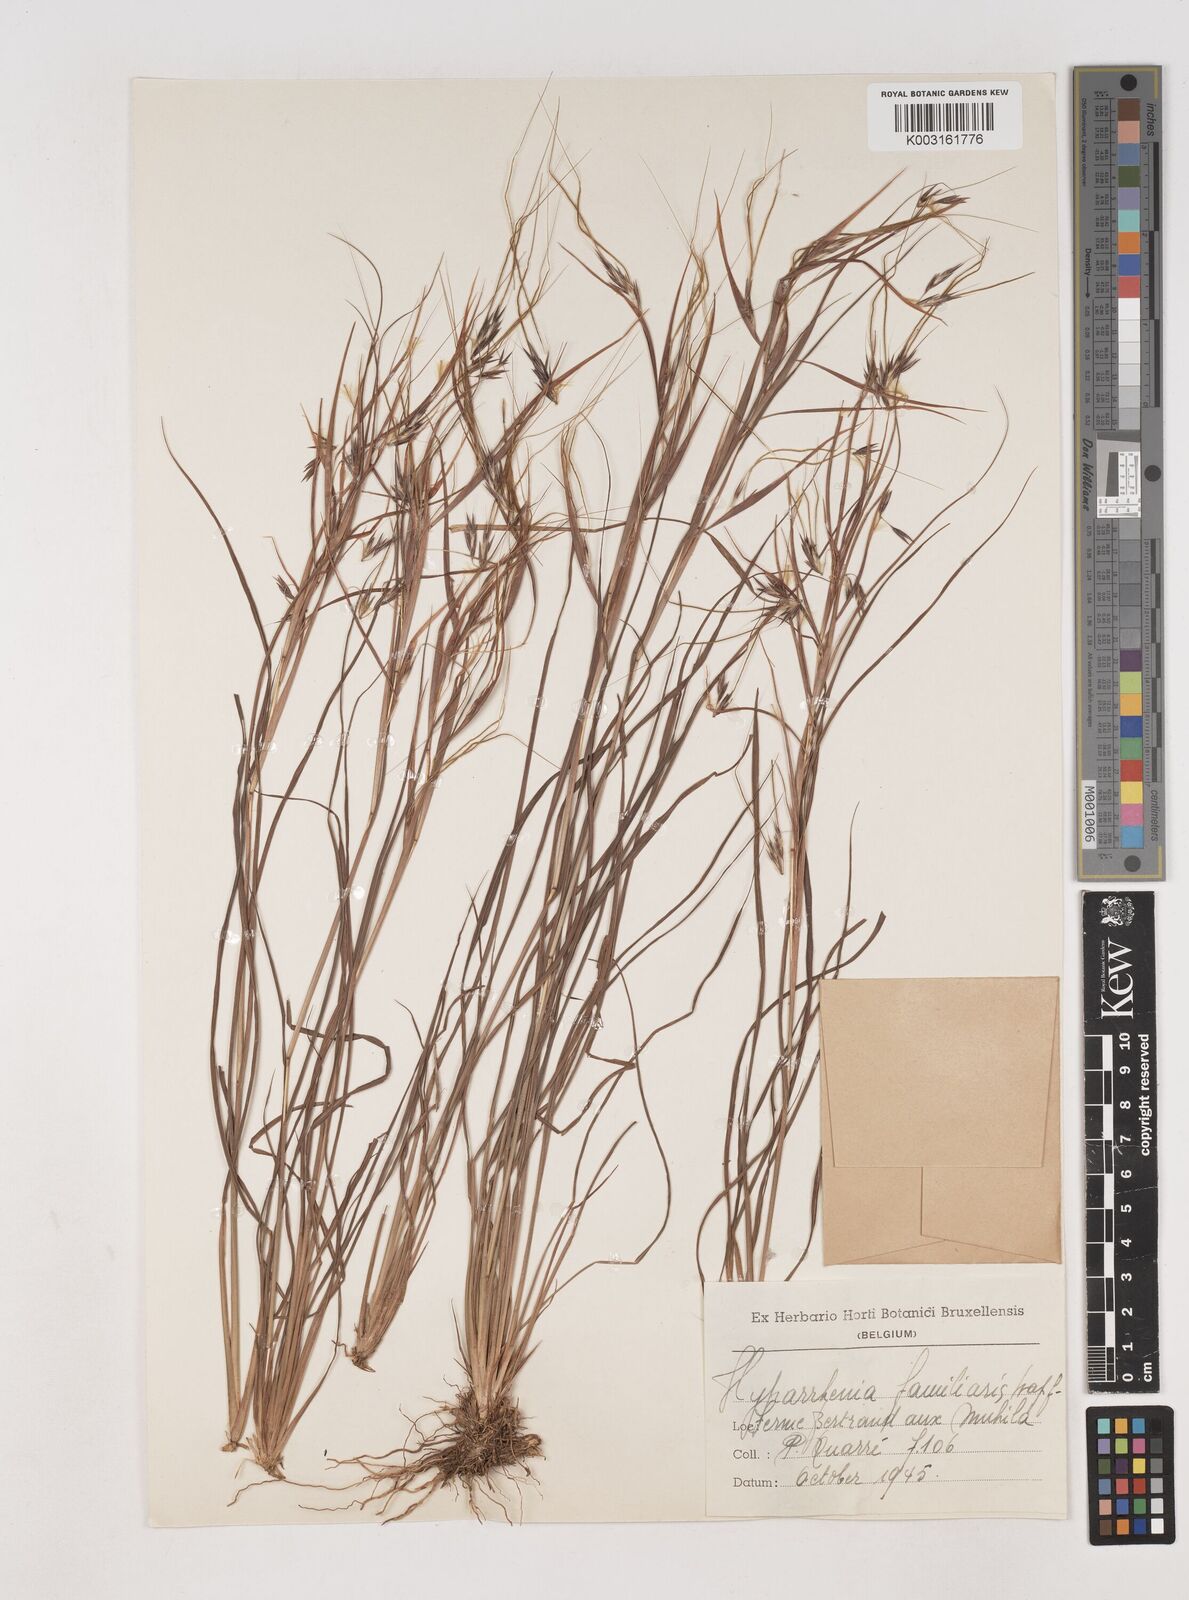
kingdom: Plantae
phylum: Tracheophyta
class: Liliopsida
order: Poales
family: Poaceae
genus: Hyparrhenia
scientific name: Hyparrhenia familiaris
